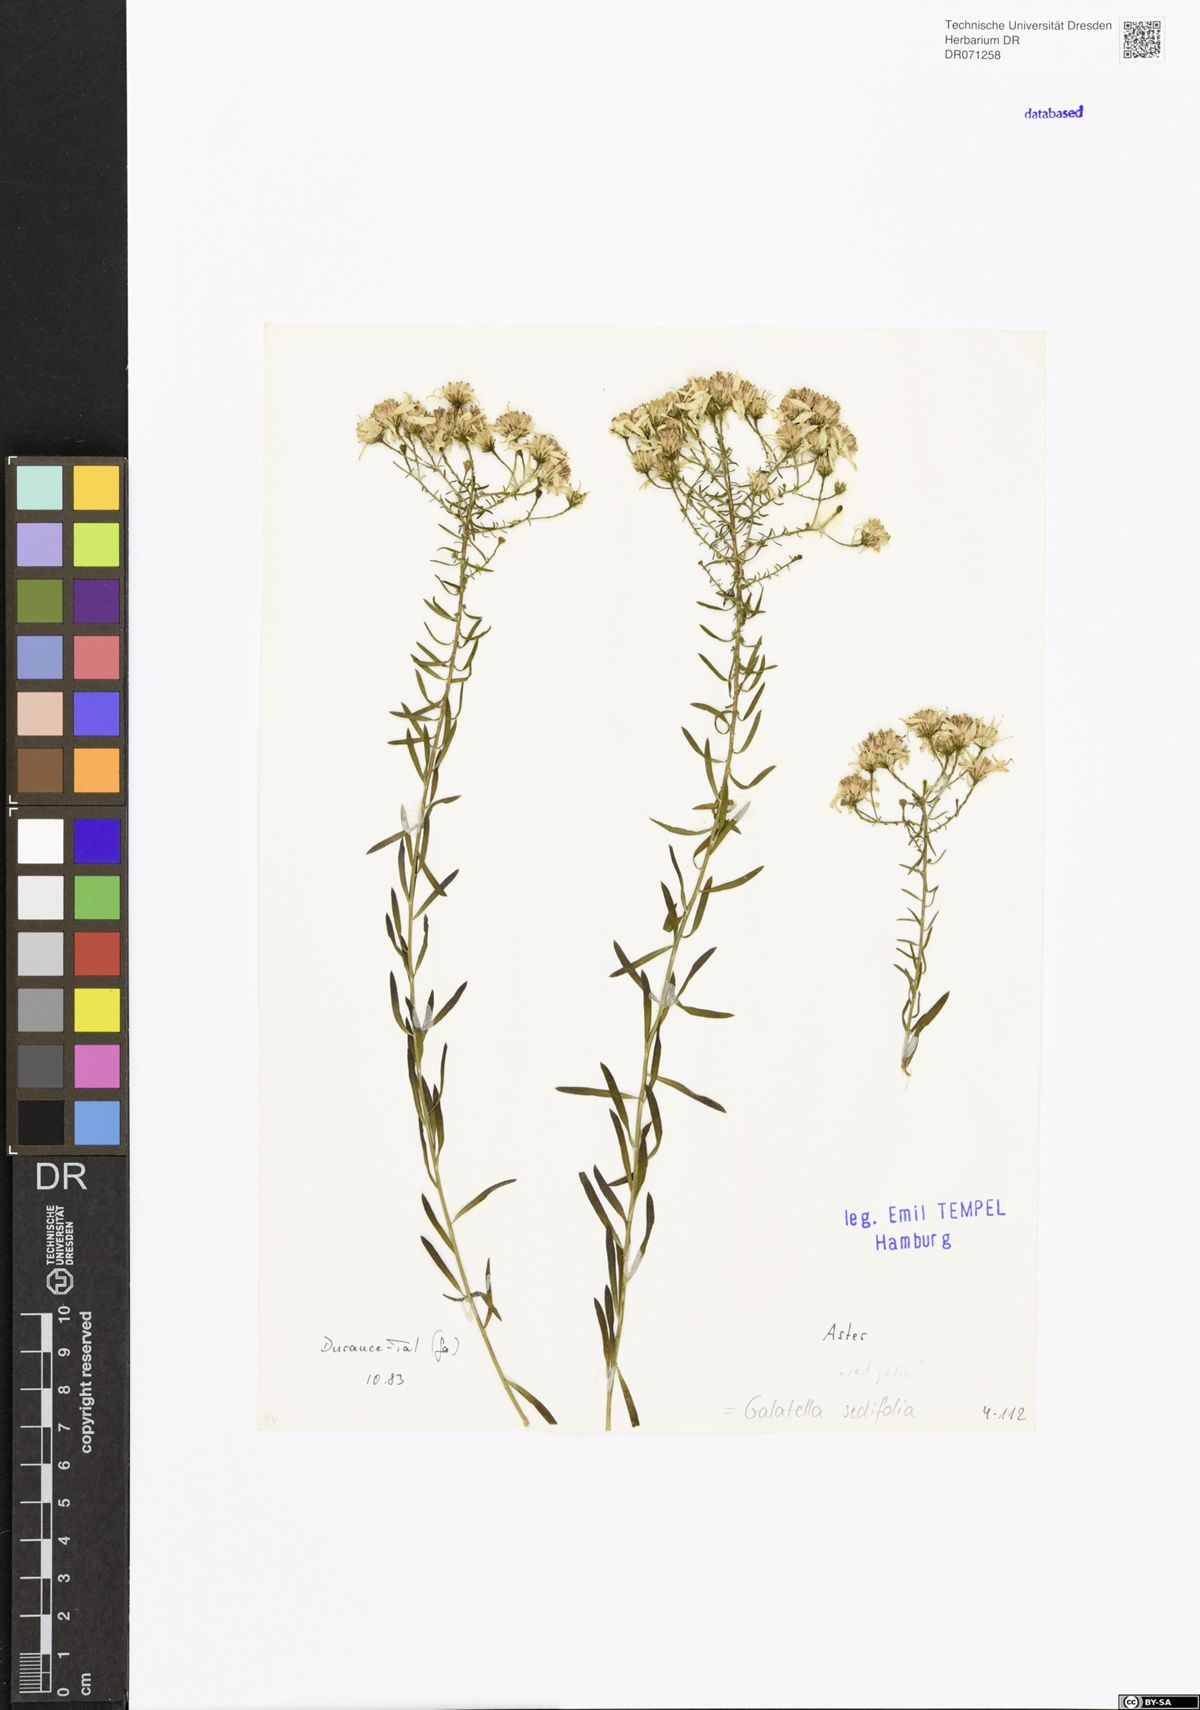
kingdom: Plantae
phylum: Tracheophyta
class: Magnoliopsida
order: Asterales
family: Asteraceae
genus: Galatella
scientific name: Galatella sedifolia
